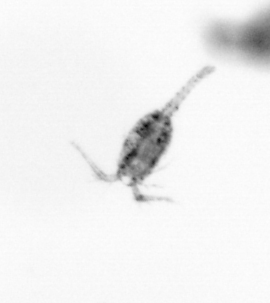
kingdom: Animalia
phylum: Arthropoda
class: Copepoda
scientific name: Copepoda
